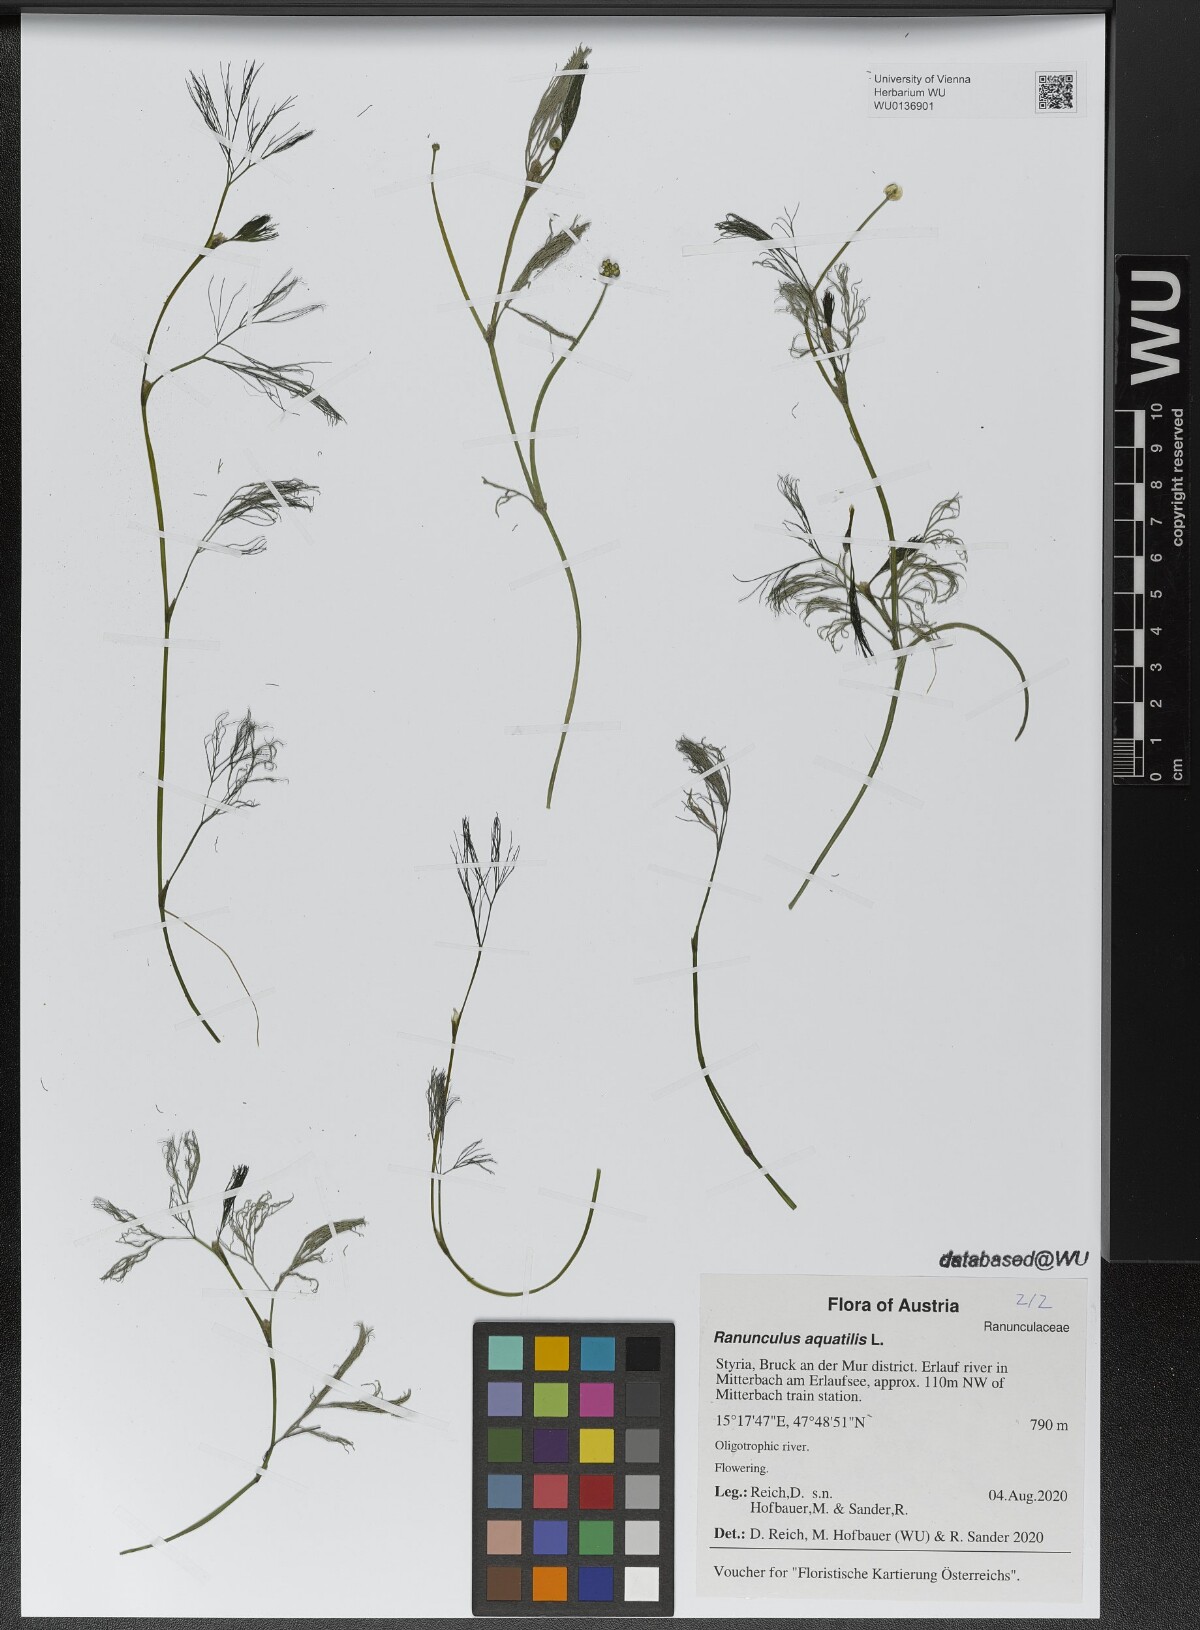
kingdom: Plantae
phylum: Tracheophyta
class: Magnoliopsida
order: Ranunculales
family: Ranunculaceae
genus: Ranunculus
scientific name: Ranunculus aquatilis
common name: Common water-crowfoot
